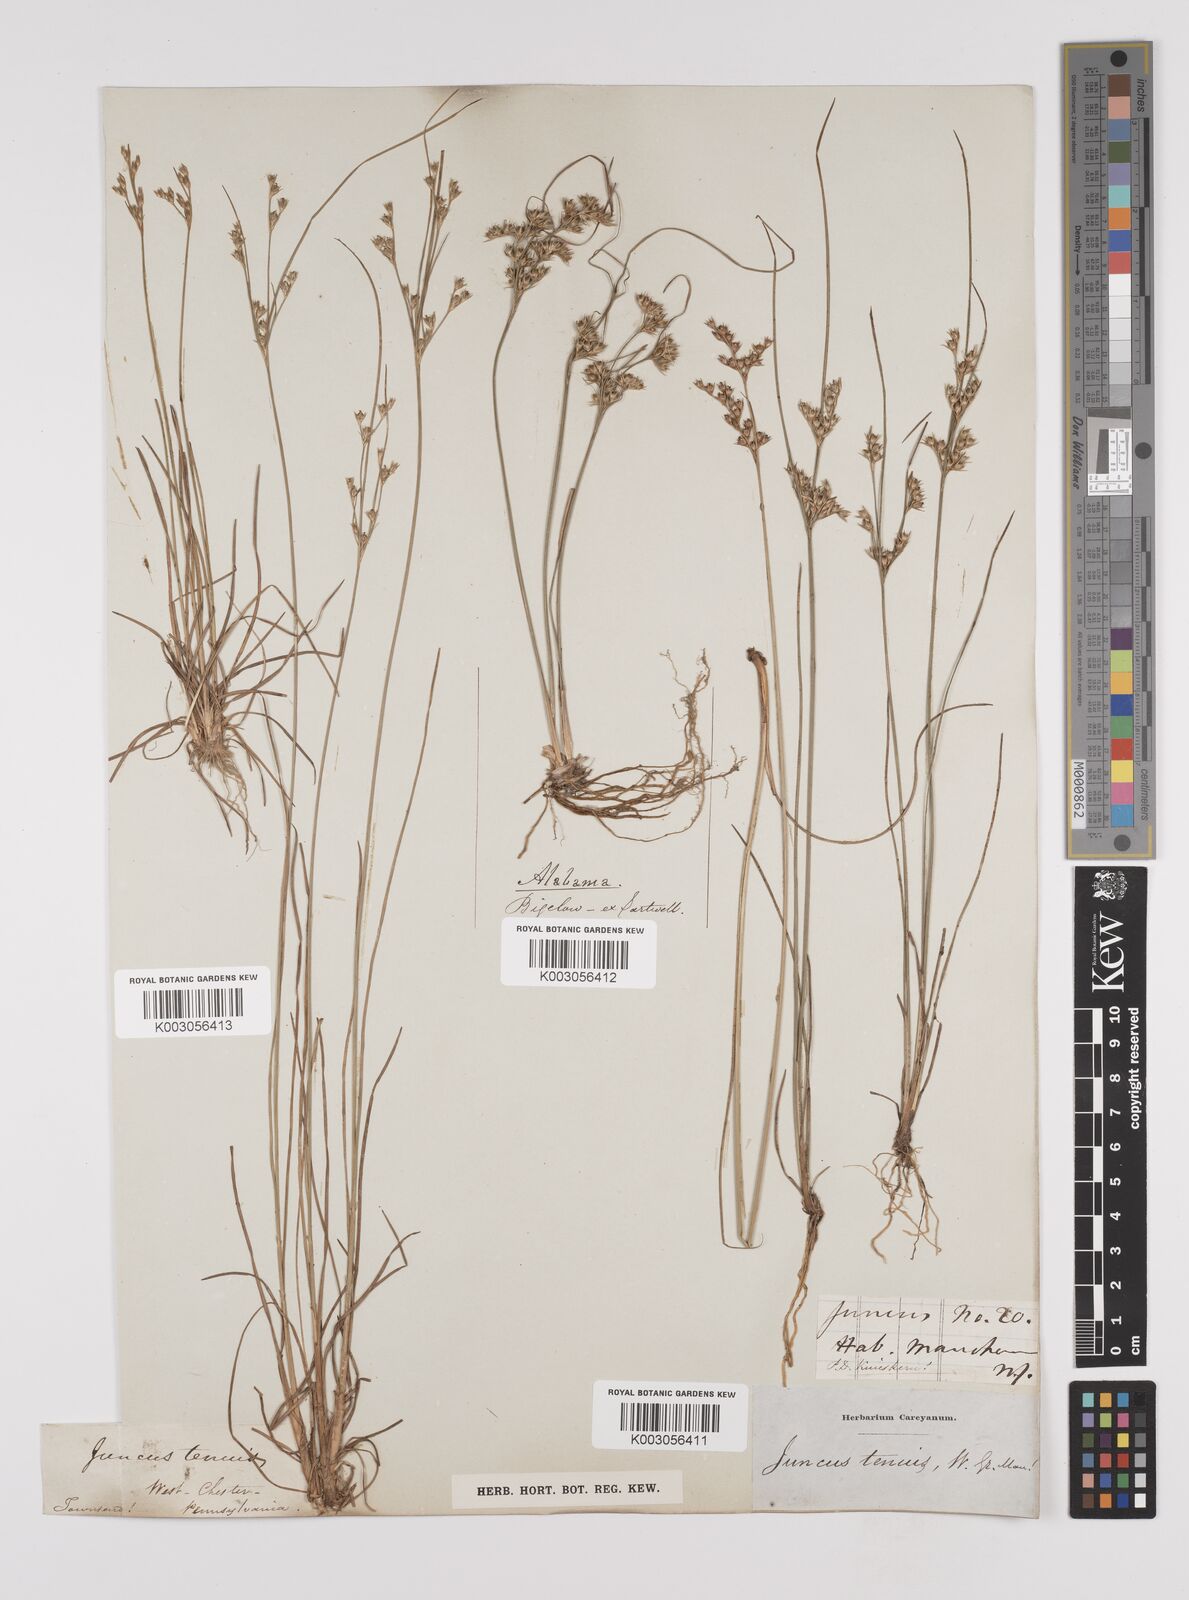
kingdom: Plantae
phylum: Tracheophyta
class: Liliopsida
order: Poales
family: Juncaceae
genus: Juncus
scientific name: Juncus tenuis
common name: Slender rush
